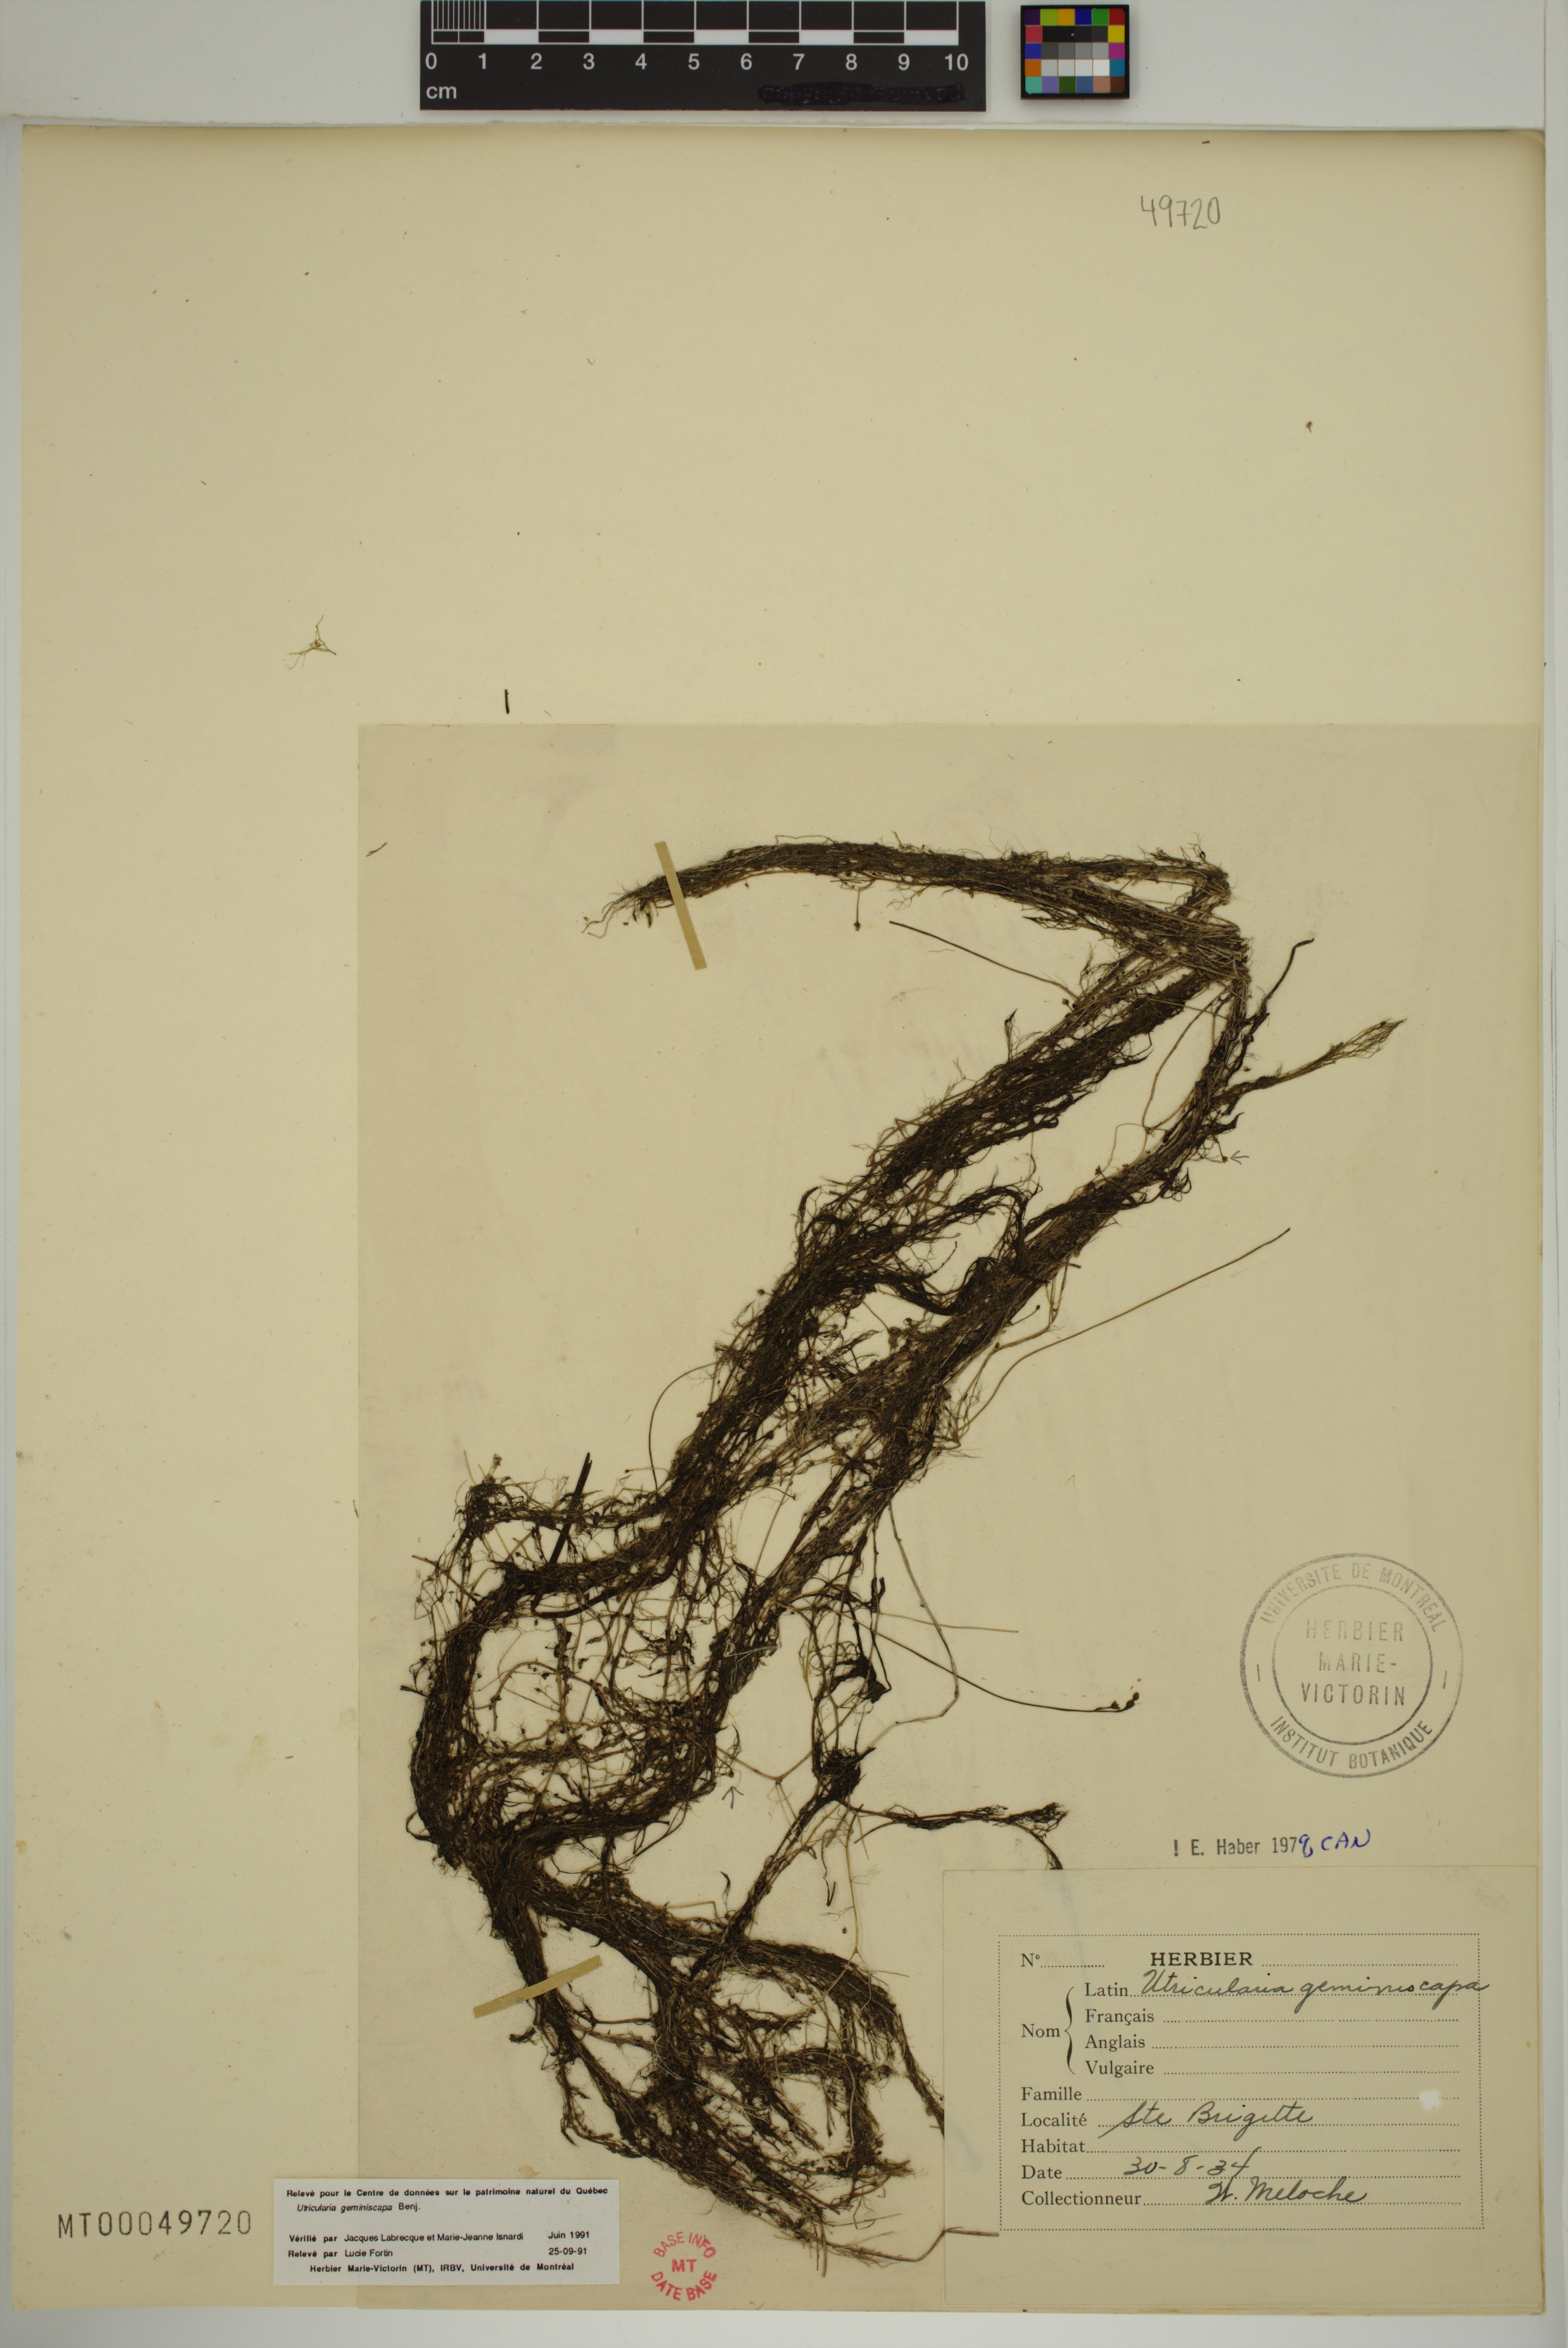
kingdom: Plantae
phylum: Tracheophyta
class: Magnoliopsida
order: Lamiales
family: Lentibulariaceae
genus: Utricularia
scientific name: Utricularia geminiscapa
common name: Hidden-fruit bladderwort
